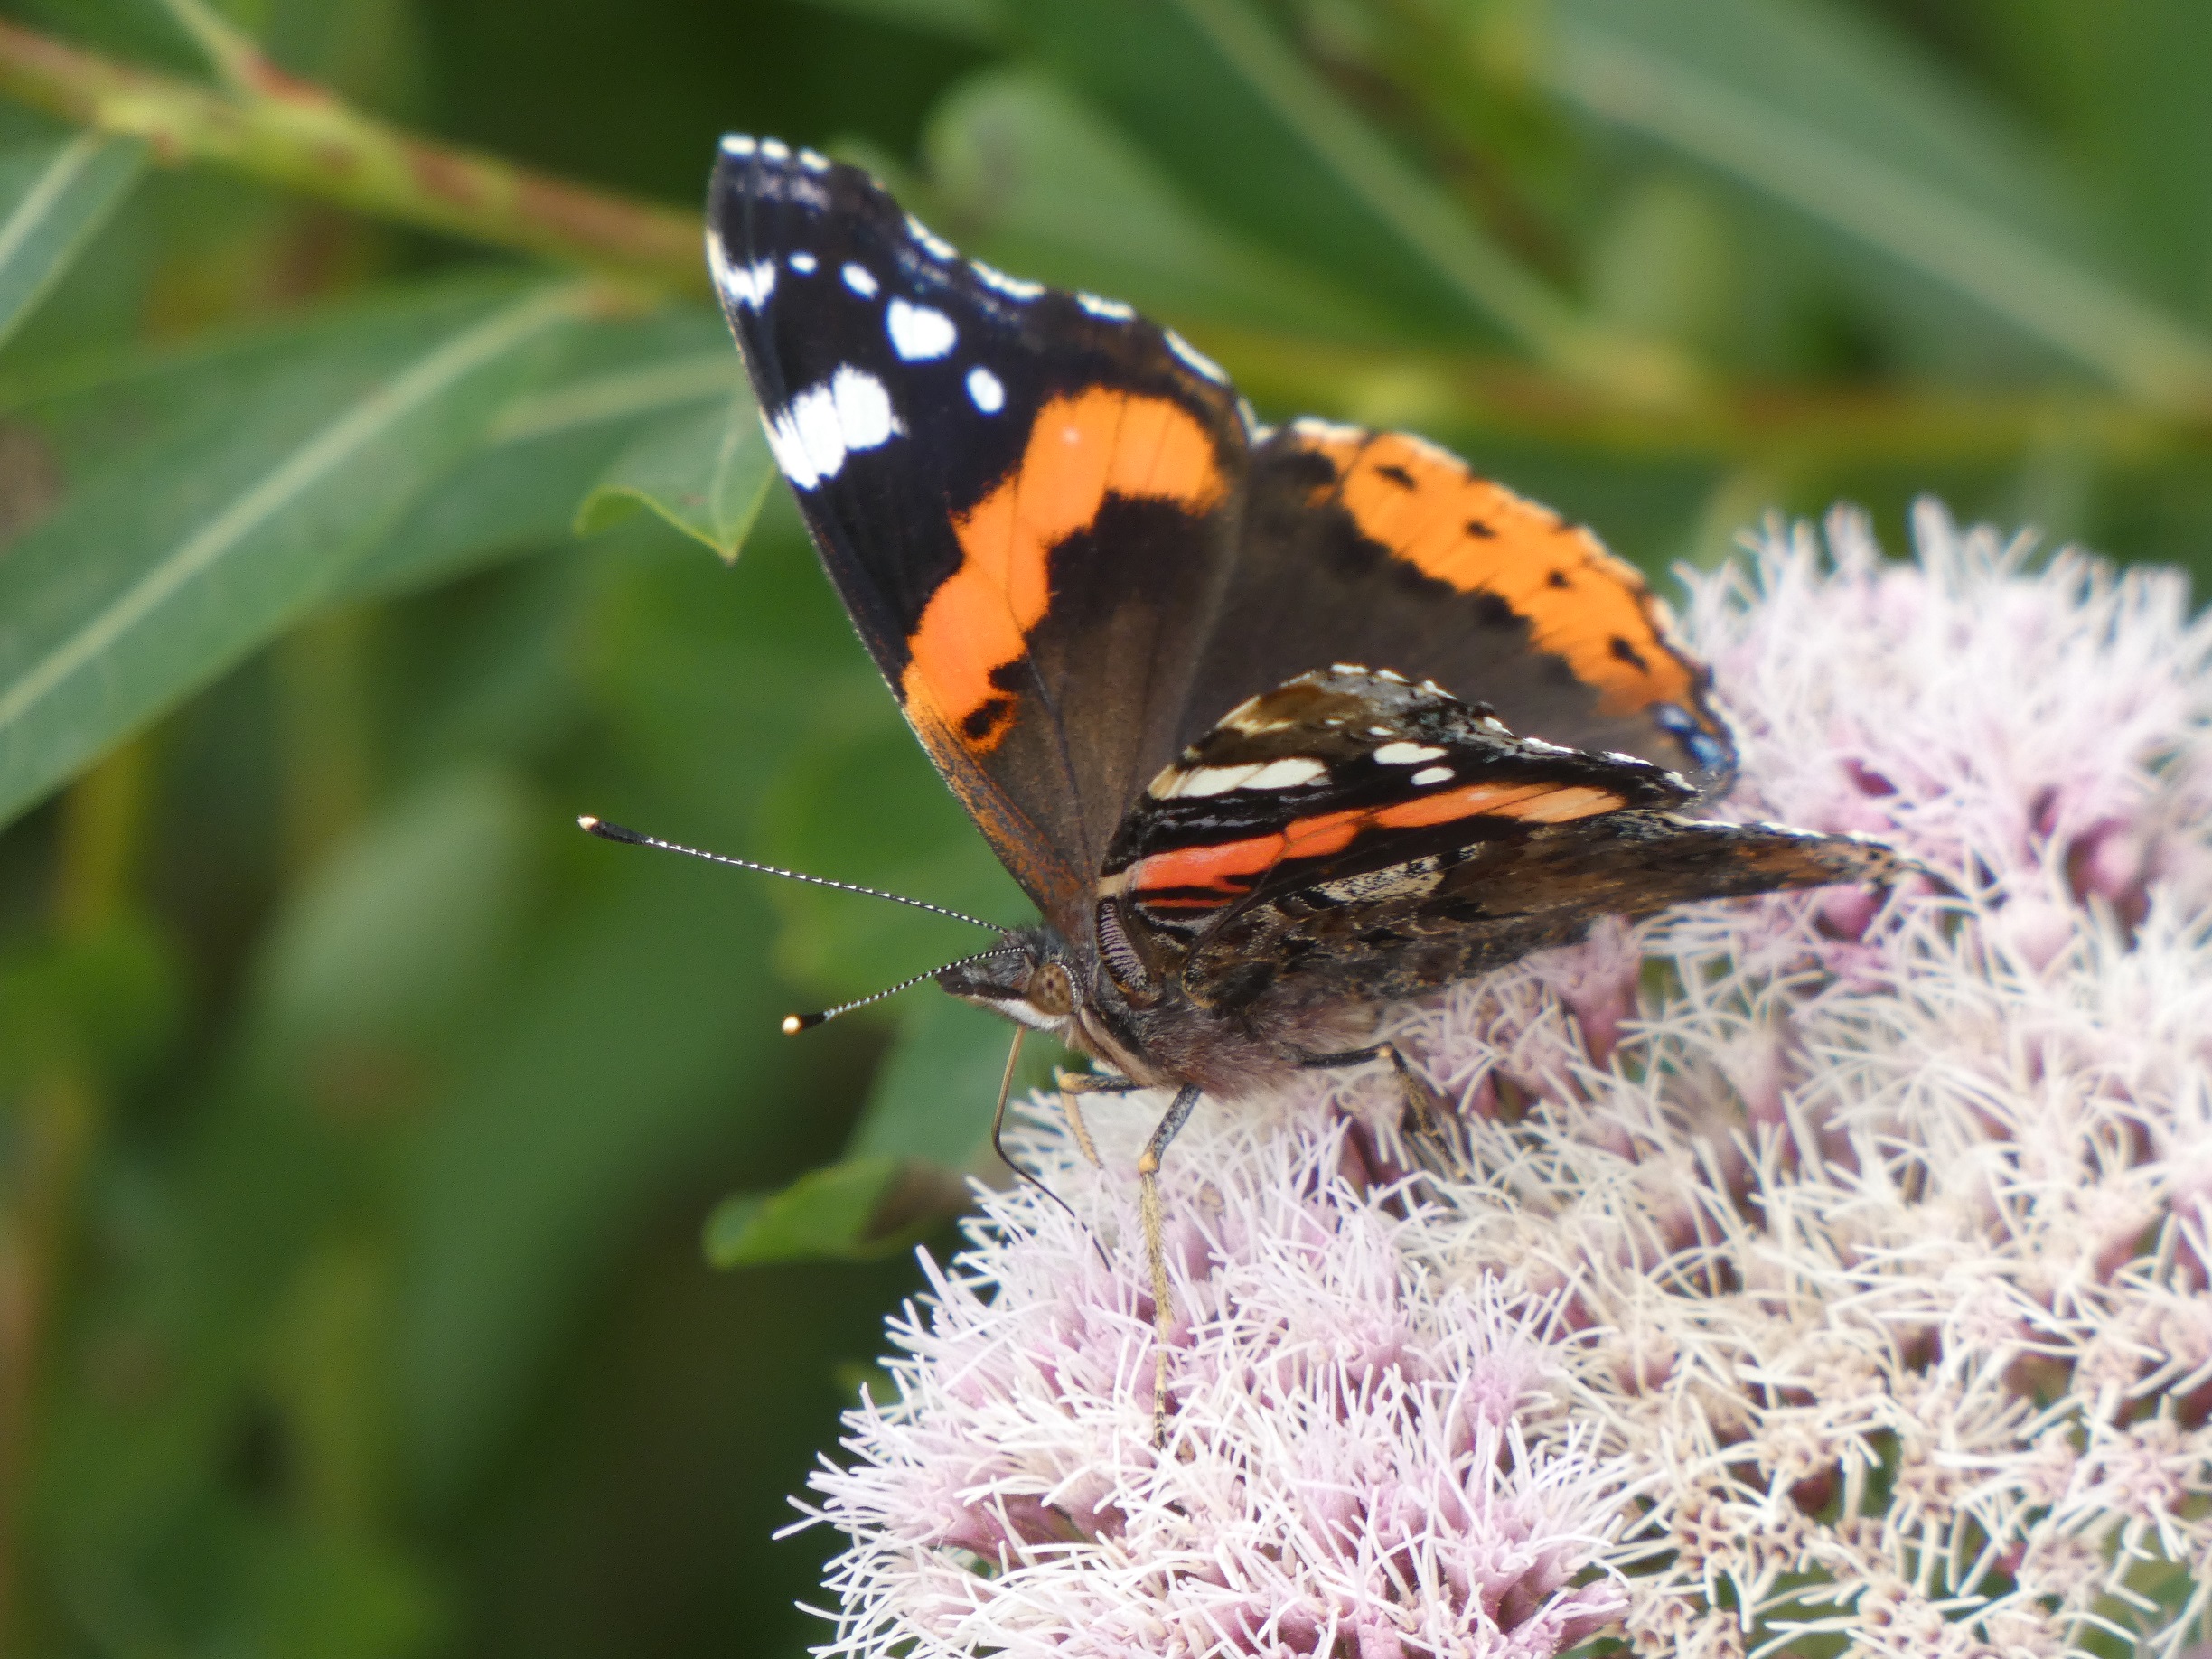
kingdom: Animalia
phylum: Arthropoda
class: Insecta
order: Lepidoptera
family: Nymphalidae
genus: Vanessa
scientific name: Vanessa atalanta
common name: Admiral
